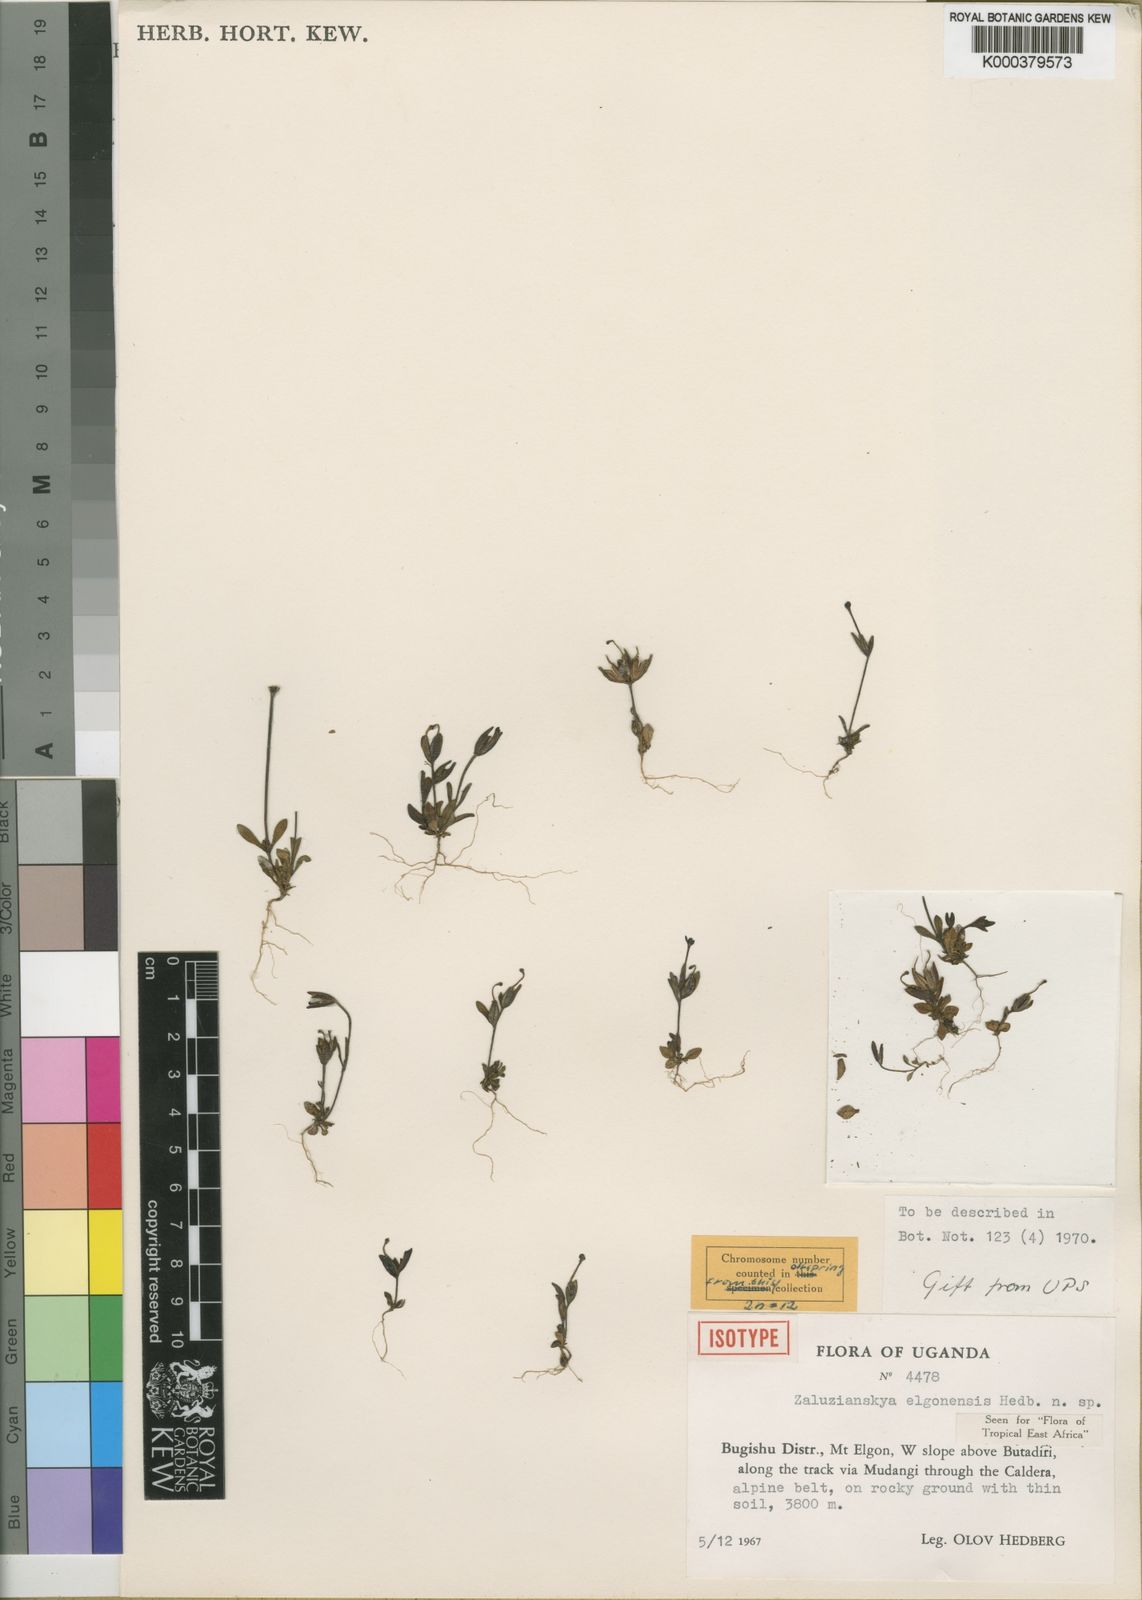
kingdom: Plantae
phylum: Tracheophyta
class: Magnoliopsida
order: Lamiales
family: Scrophulariaceae
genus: Zaluzianskya
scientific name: Zaluzianskya elgonensis
